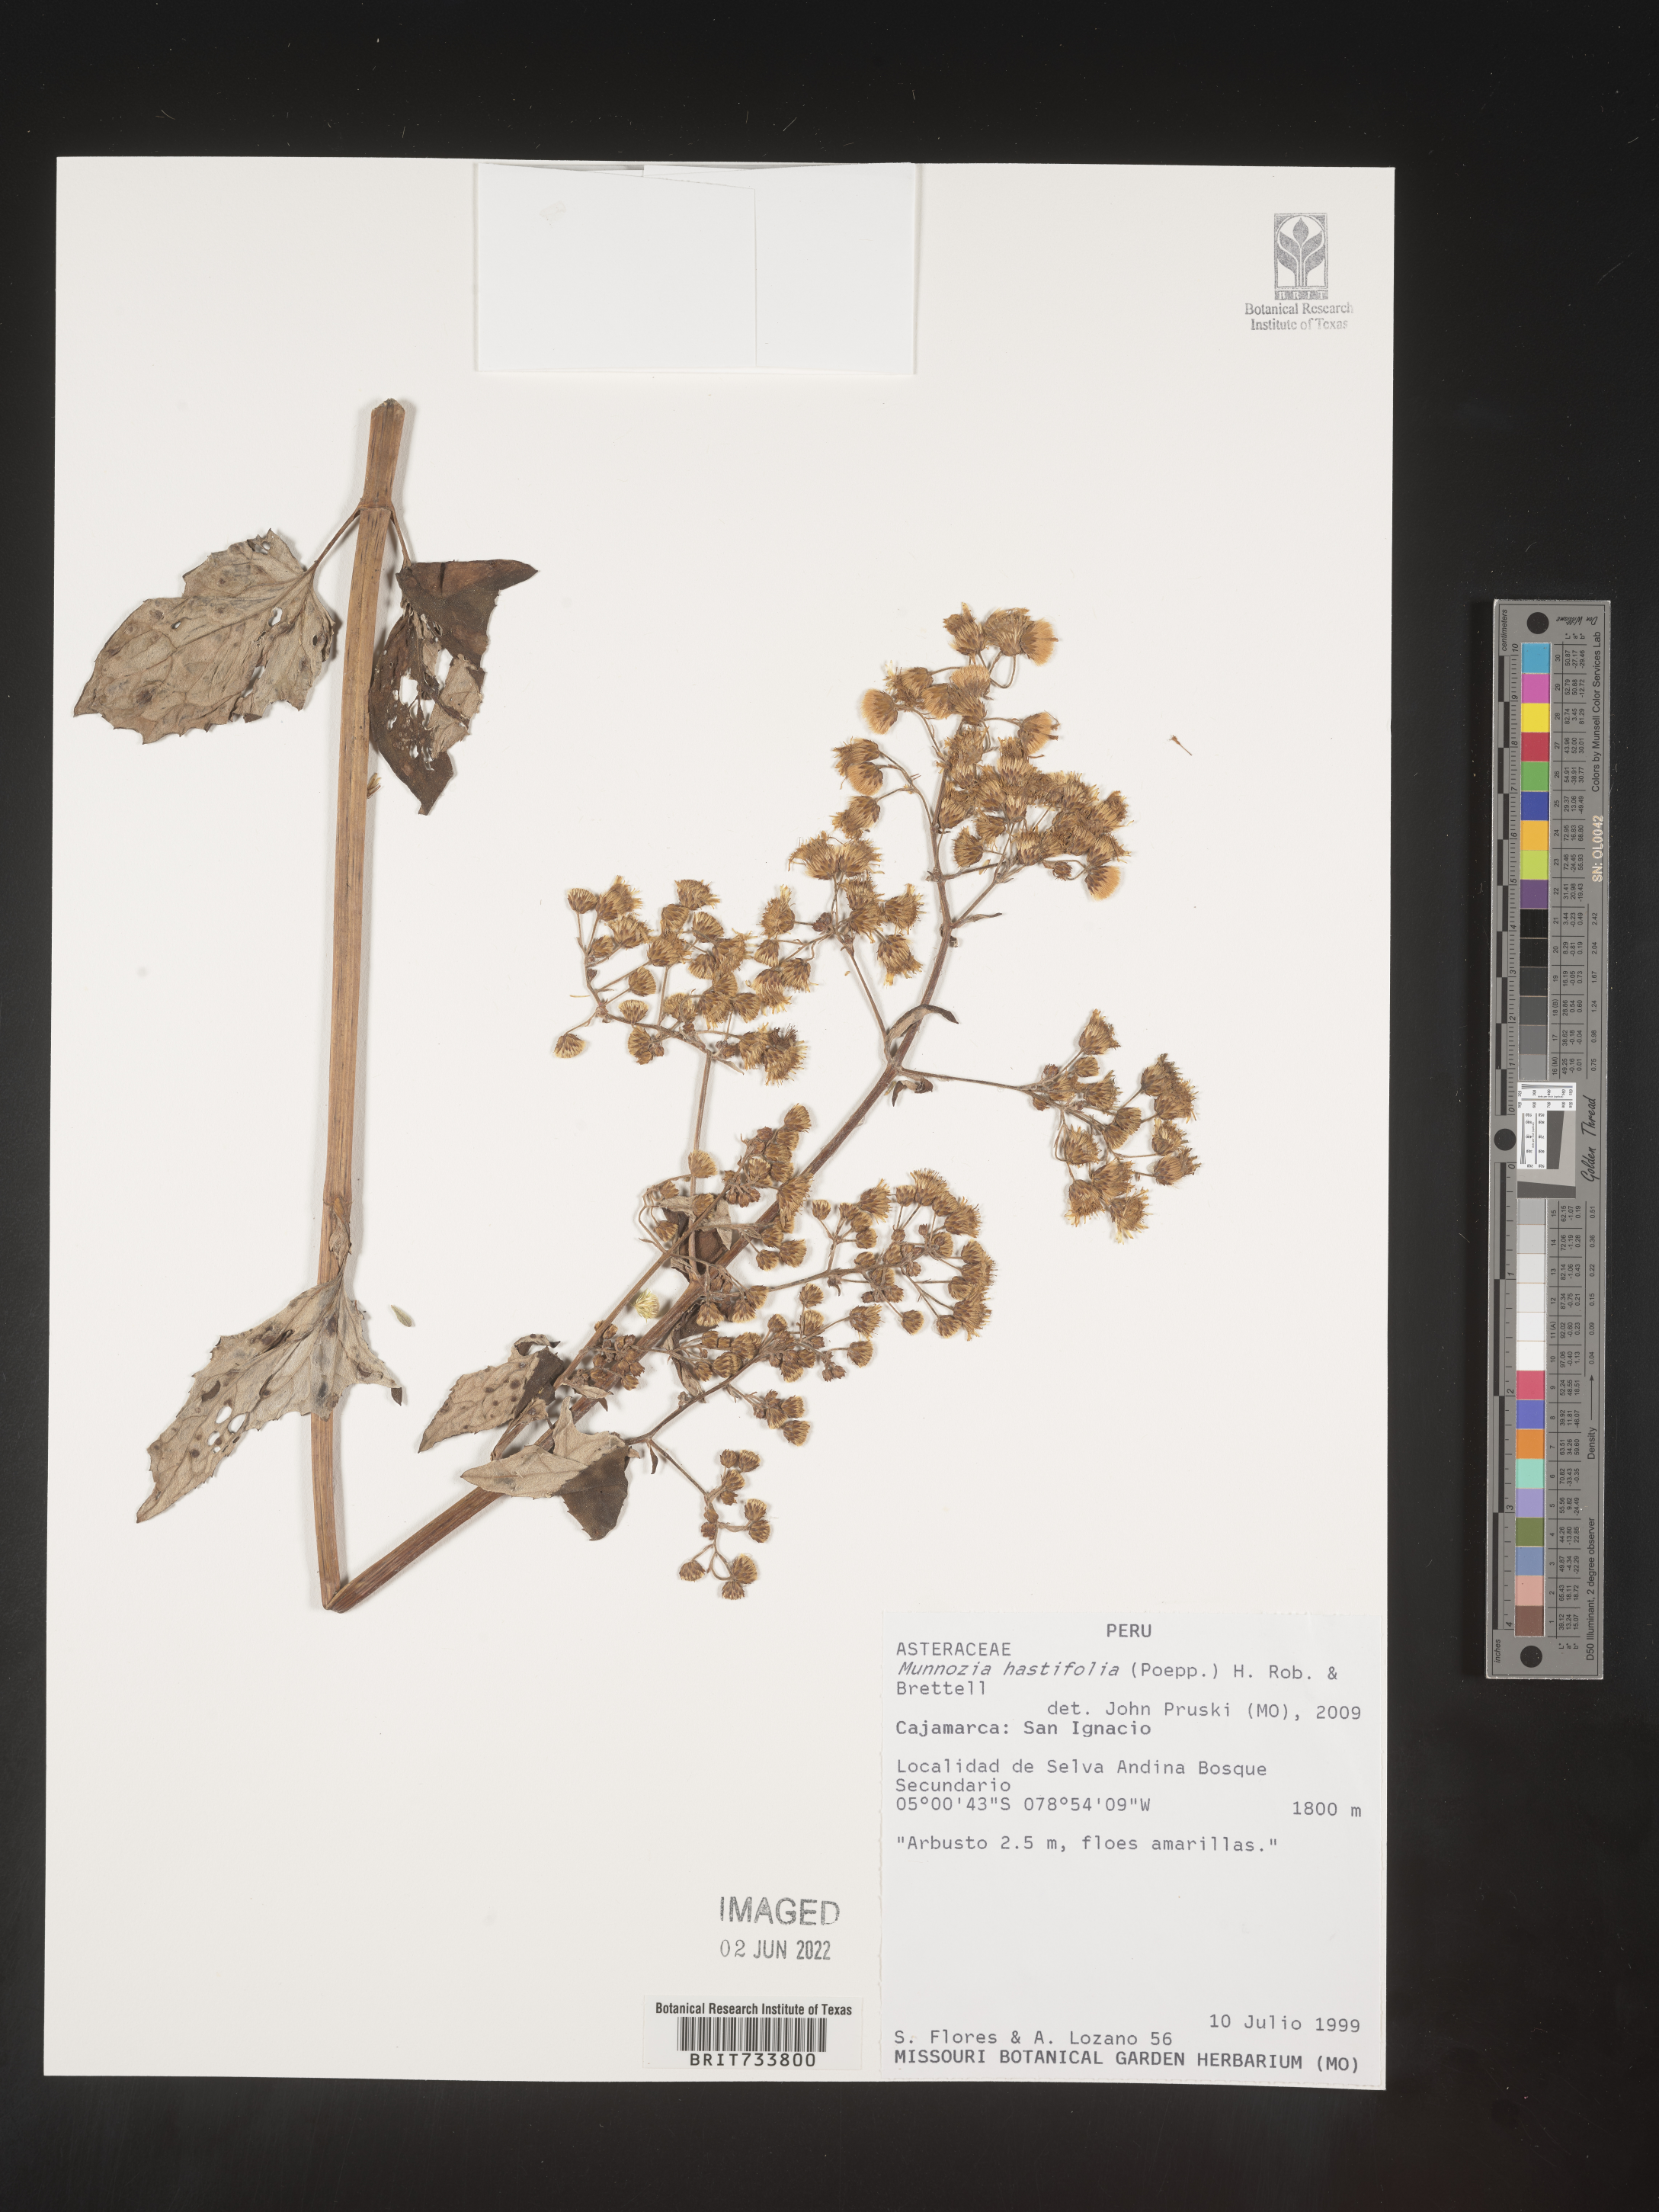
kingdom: Plantae
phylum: Tracheophyta
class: Magnoliopsida
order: Asterales
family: Asteraceae
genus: Munnozia
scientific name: Munnozia
